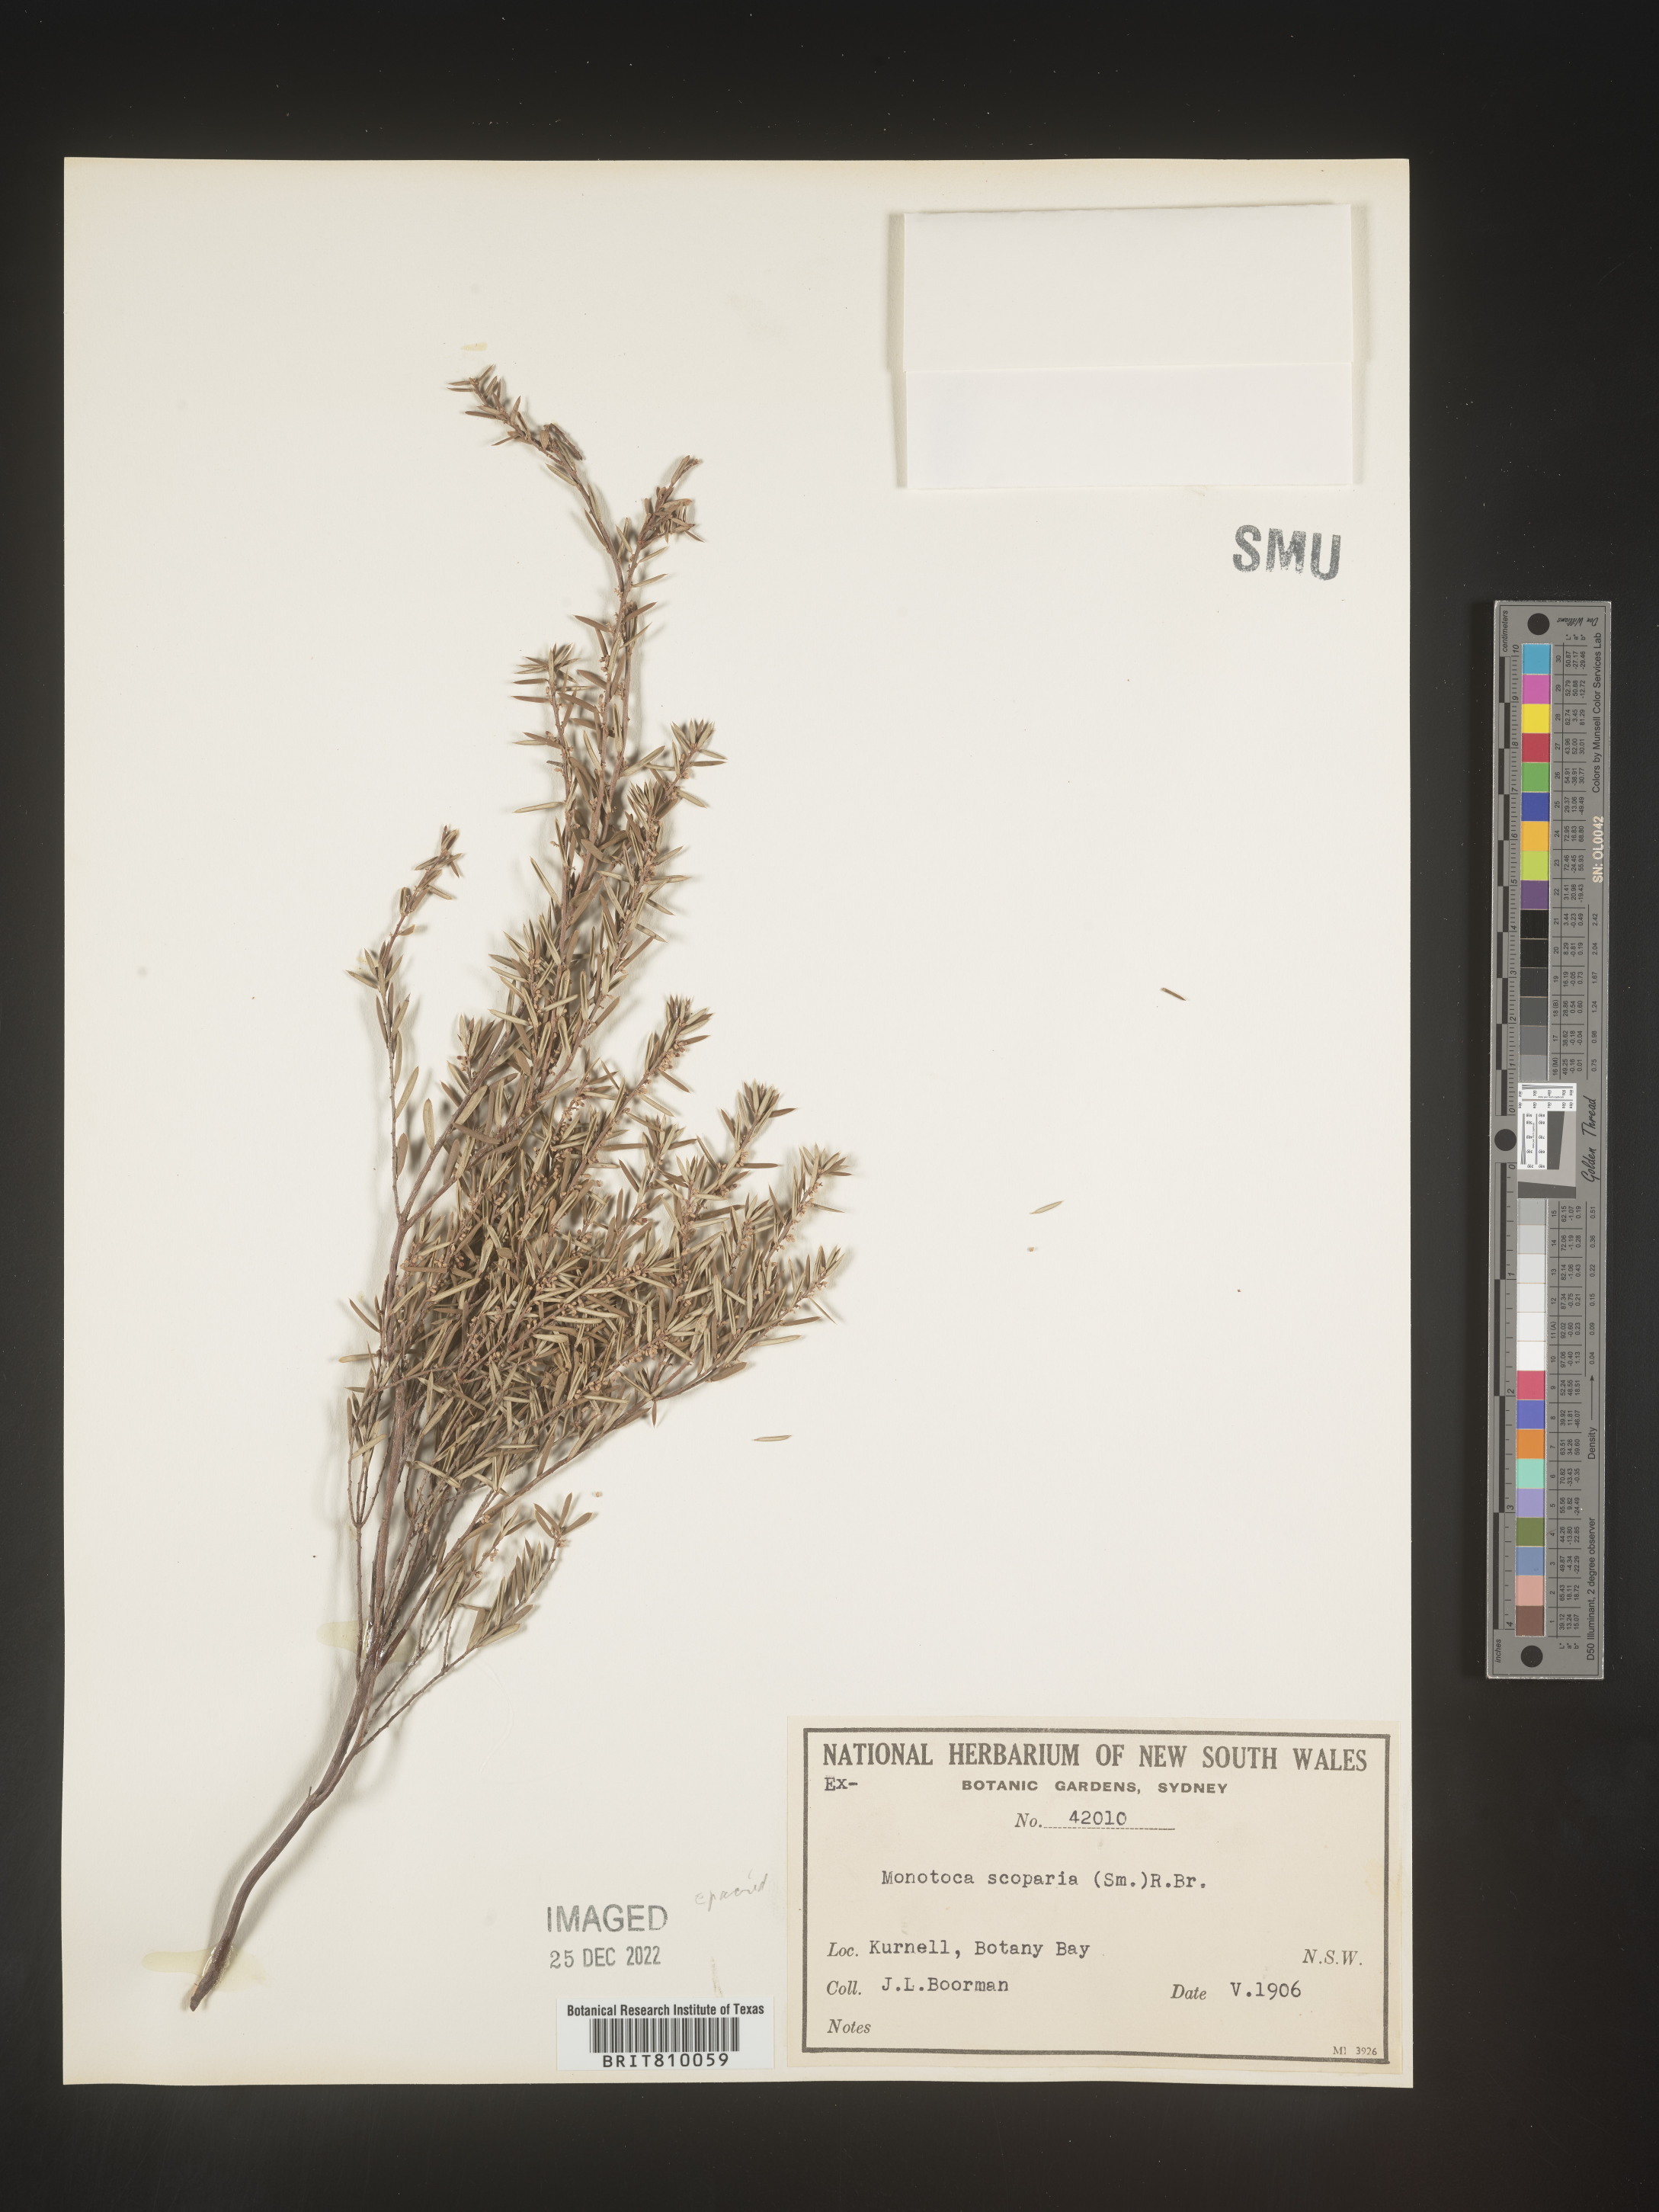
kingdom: Plantae
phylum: Tracheophyta
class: Magnoliopsida
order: Ericales
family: Ericaceae
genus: Monotoca
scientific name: Monotoca
